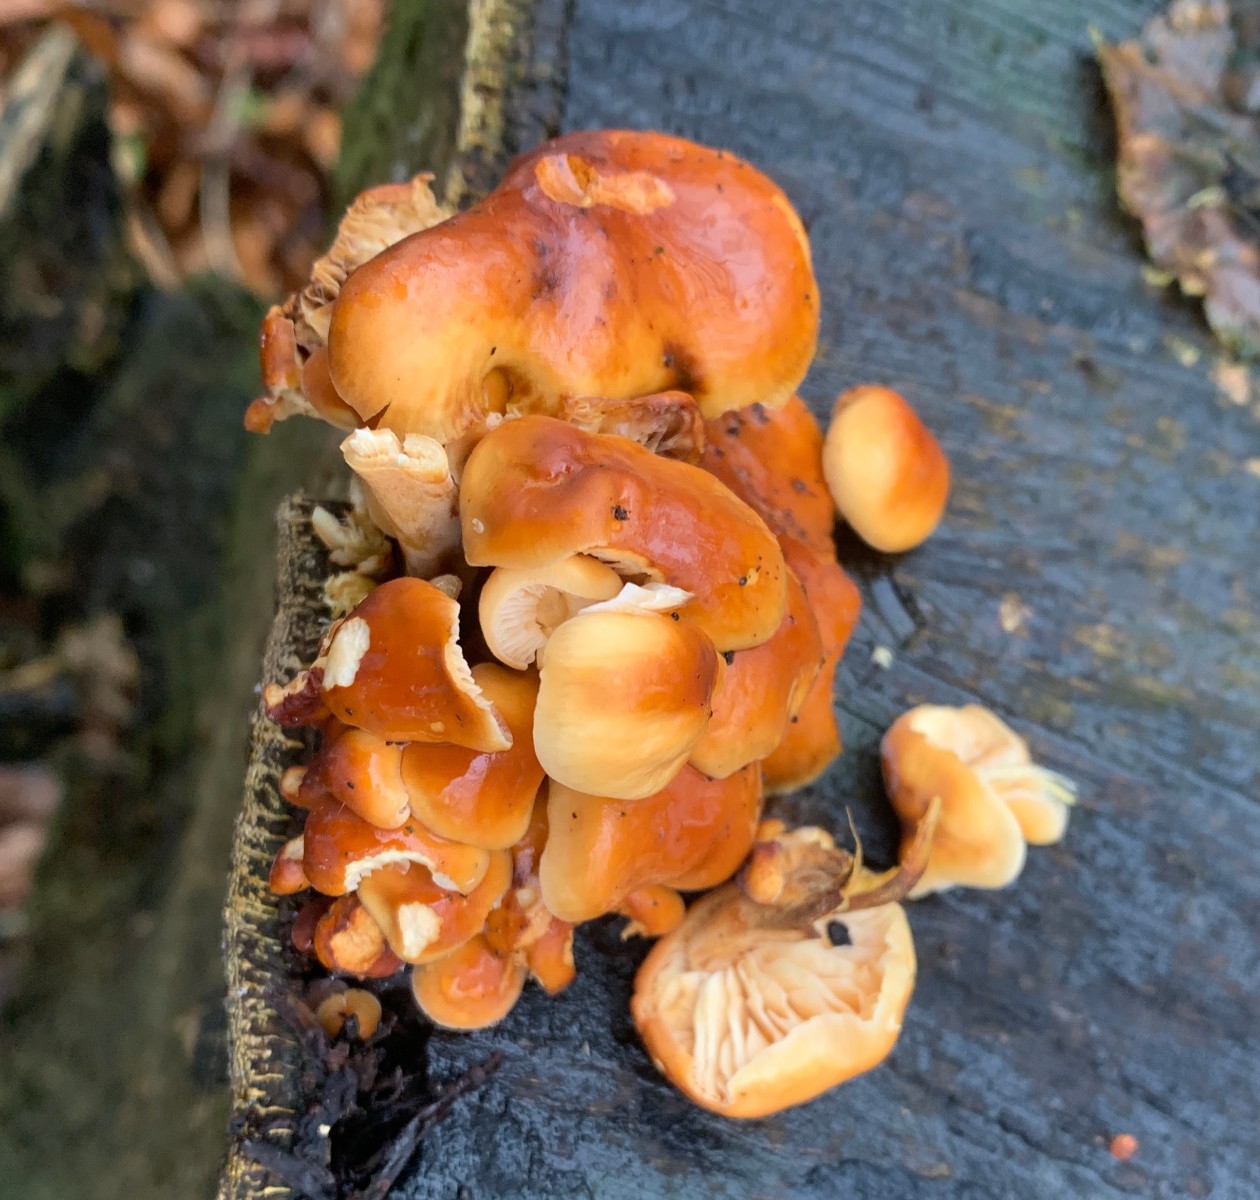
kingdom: Fungi
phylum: Basidiomycota
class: Agaricomycetes
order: Agaricales
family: Physalacriaceae
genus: Flammulina
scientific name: Flammulina velutipes
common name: gul fløjlsfod
